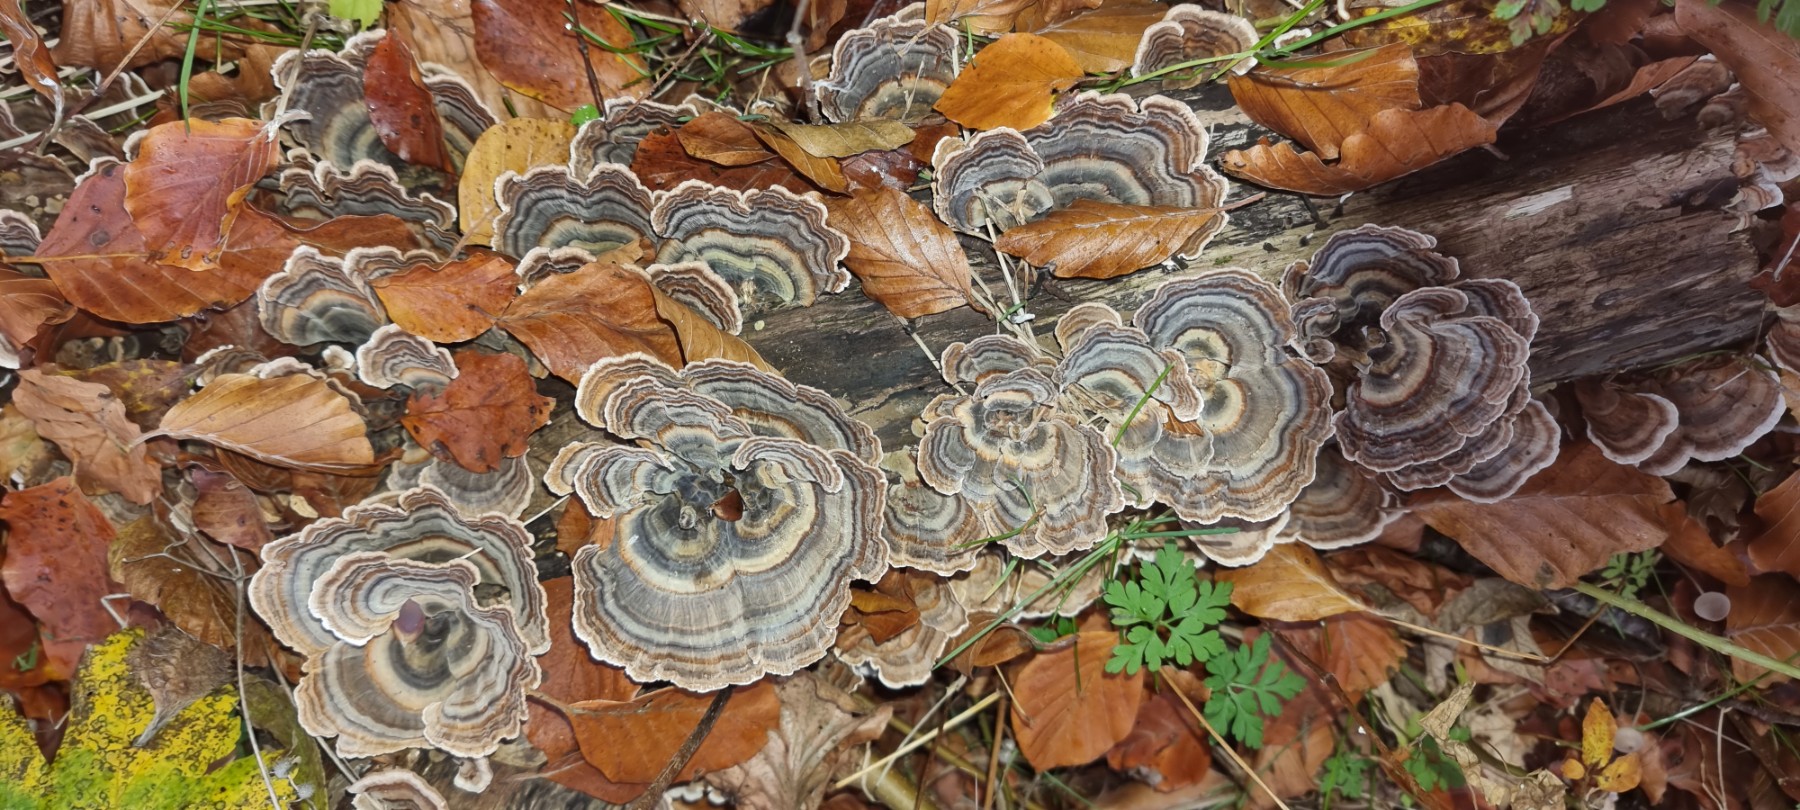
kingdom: Fungi
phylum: Basidiomycota
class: Agaricomycetes
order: Polyporales
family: Polyporaceae
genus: Trametes
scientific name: Trametes versicolor
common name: broget læderporesvamp
